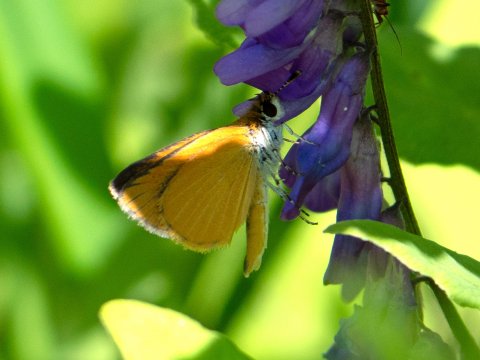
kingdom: Animalia
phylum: Arthropoda
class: Insecta
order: Lepidoptera
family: Hesperiidae
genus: Ancyloxypha
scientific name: Ancyloxypha numitor
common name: Least Skipper
